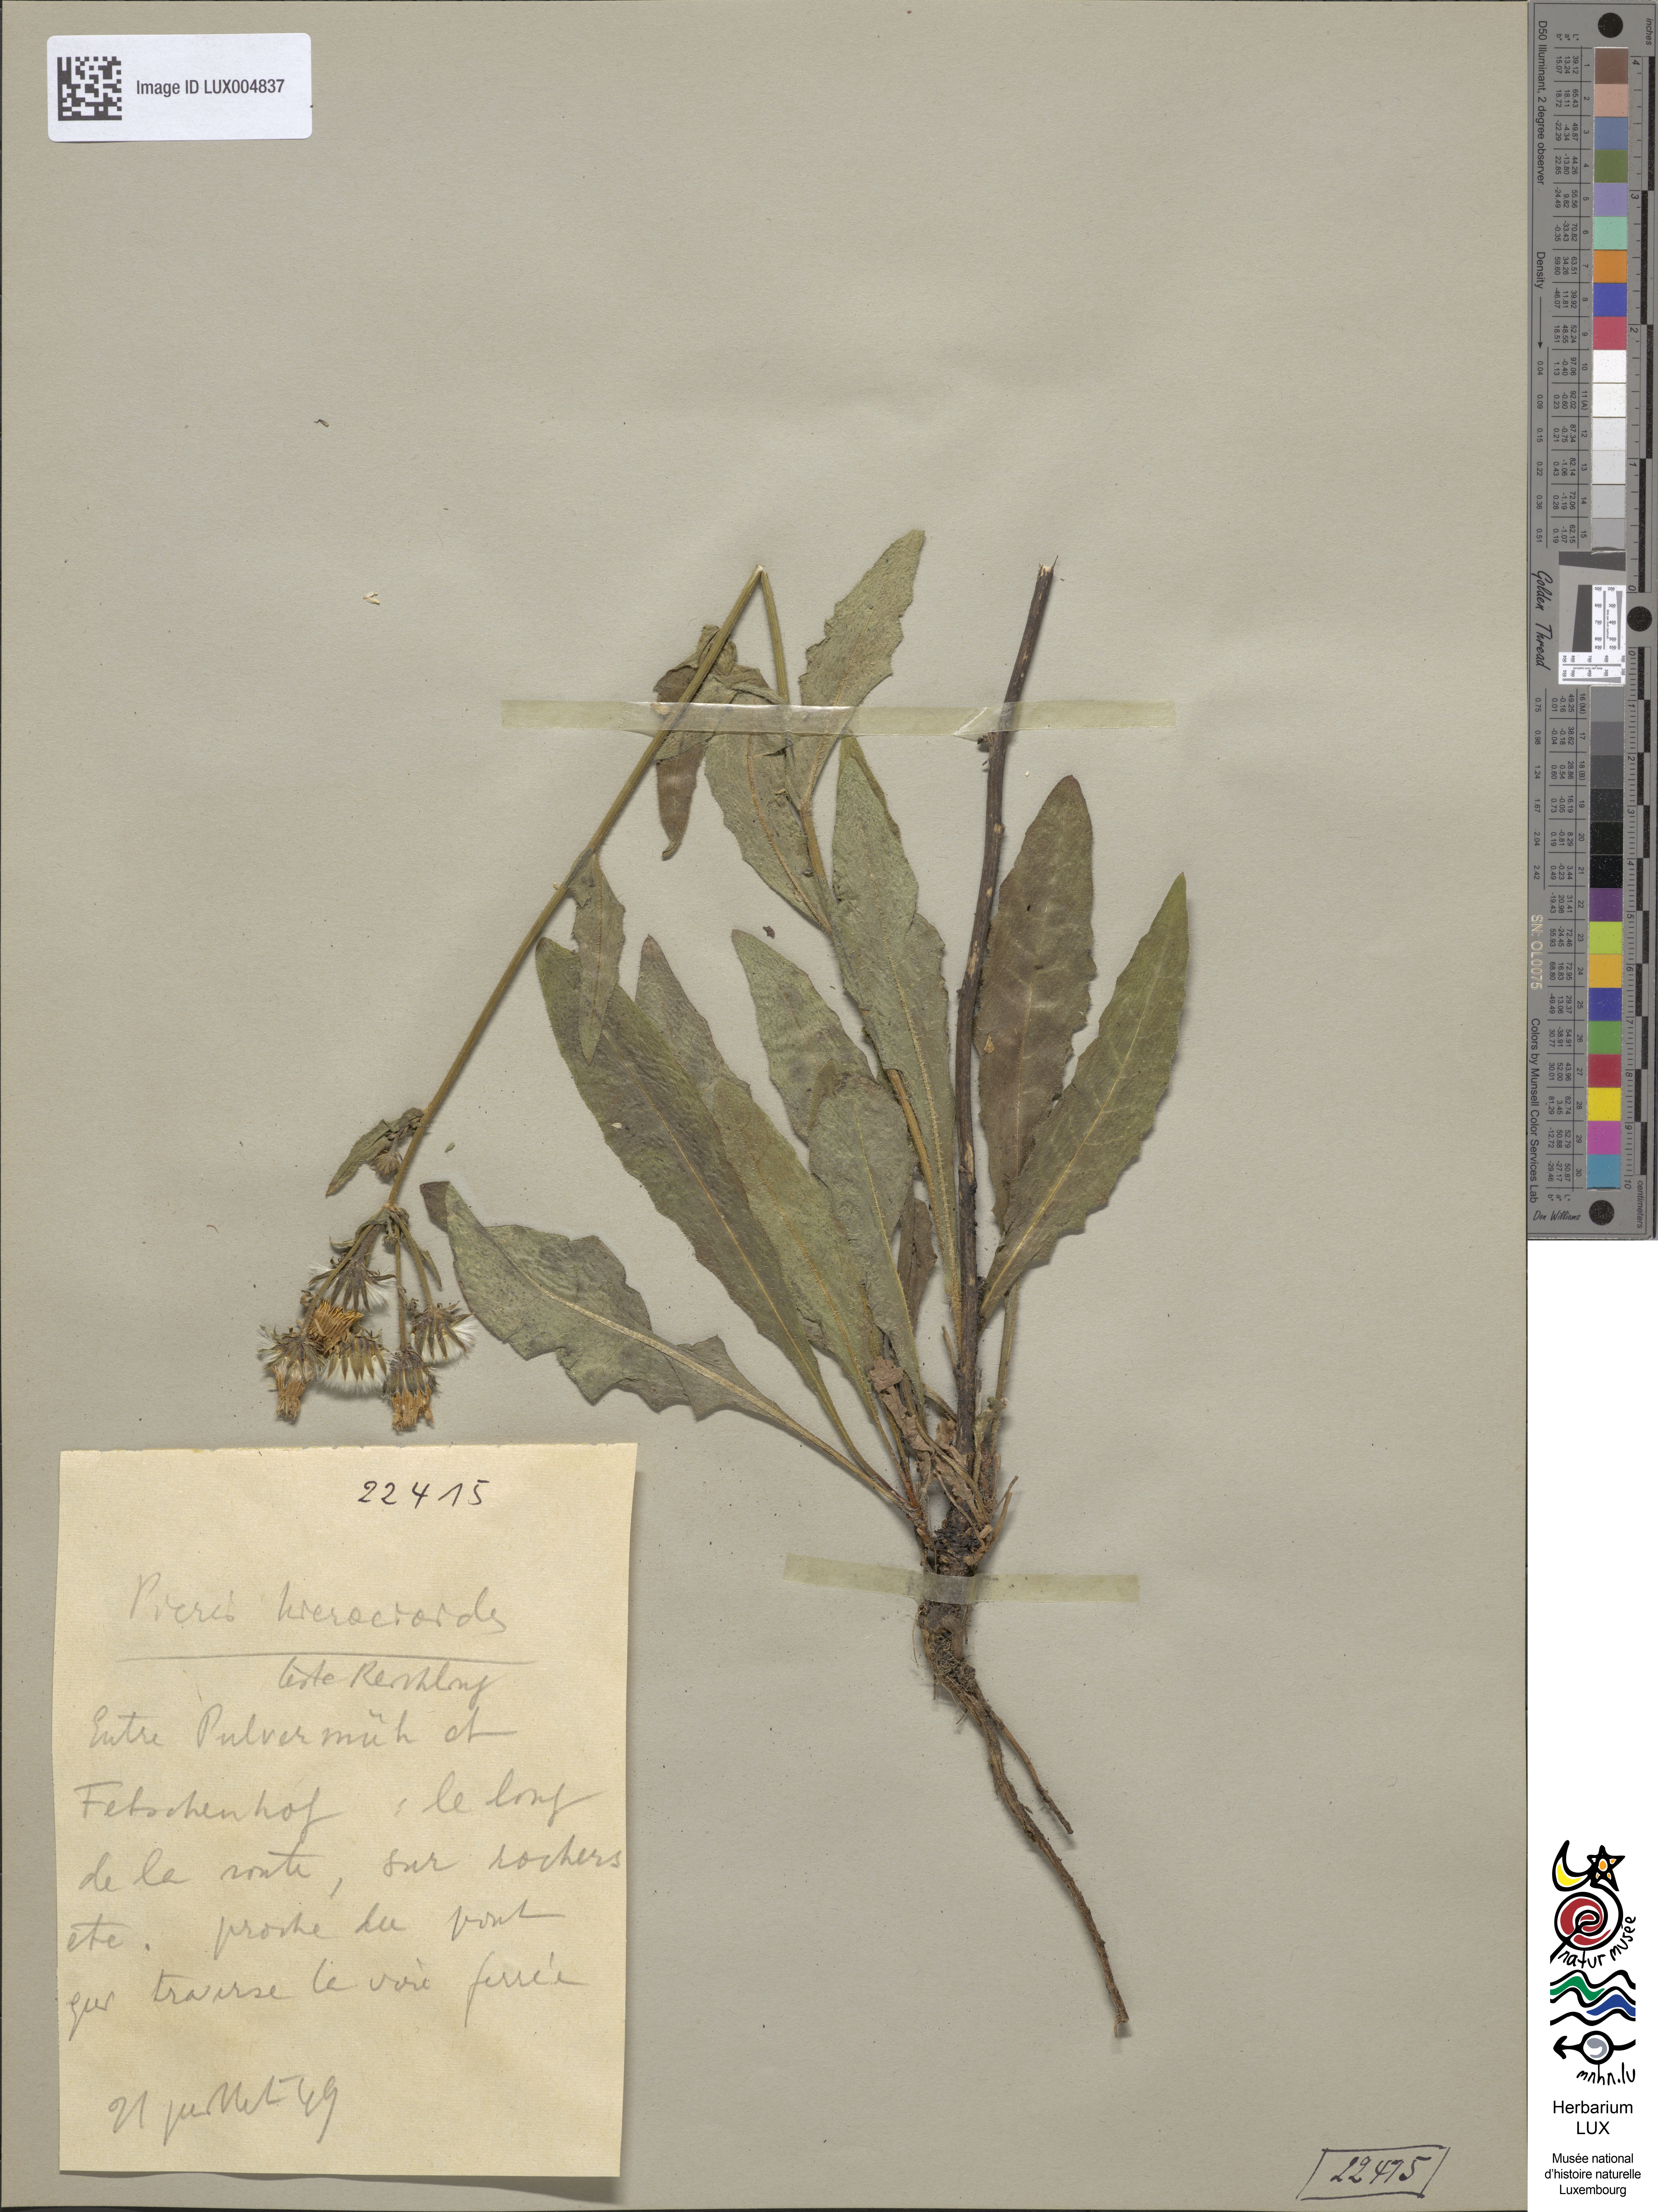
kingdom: Plantae
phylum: Tracheophyta
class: Magnoliopsida
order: Asterales
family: Asteraceae
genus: Picris
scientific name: Picris hieracioides
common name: Hawkweed oxtongue
